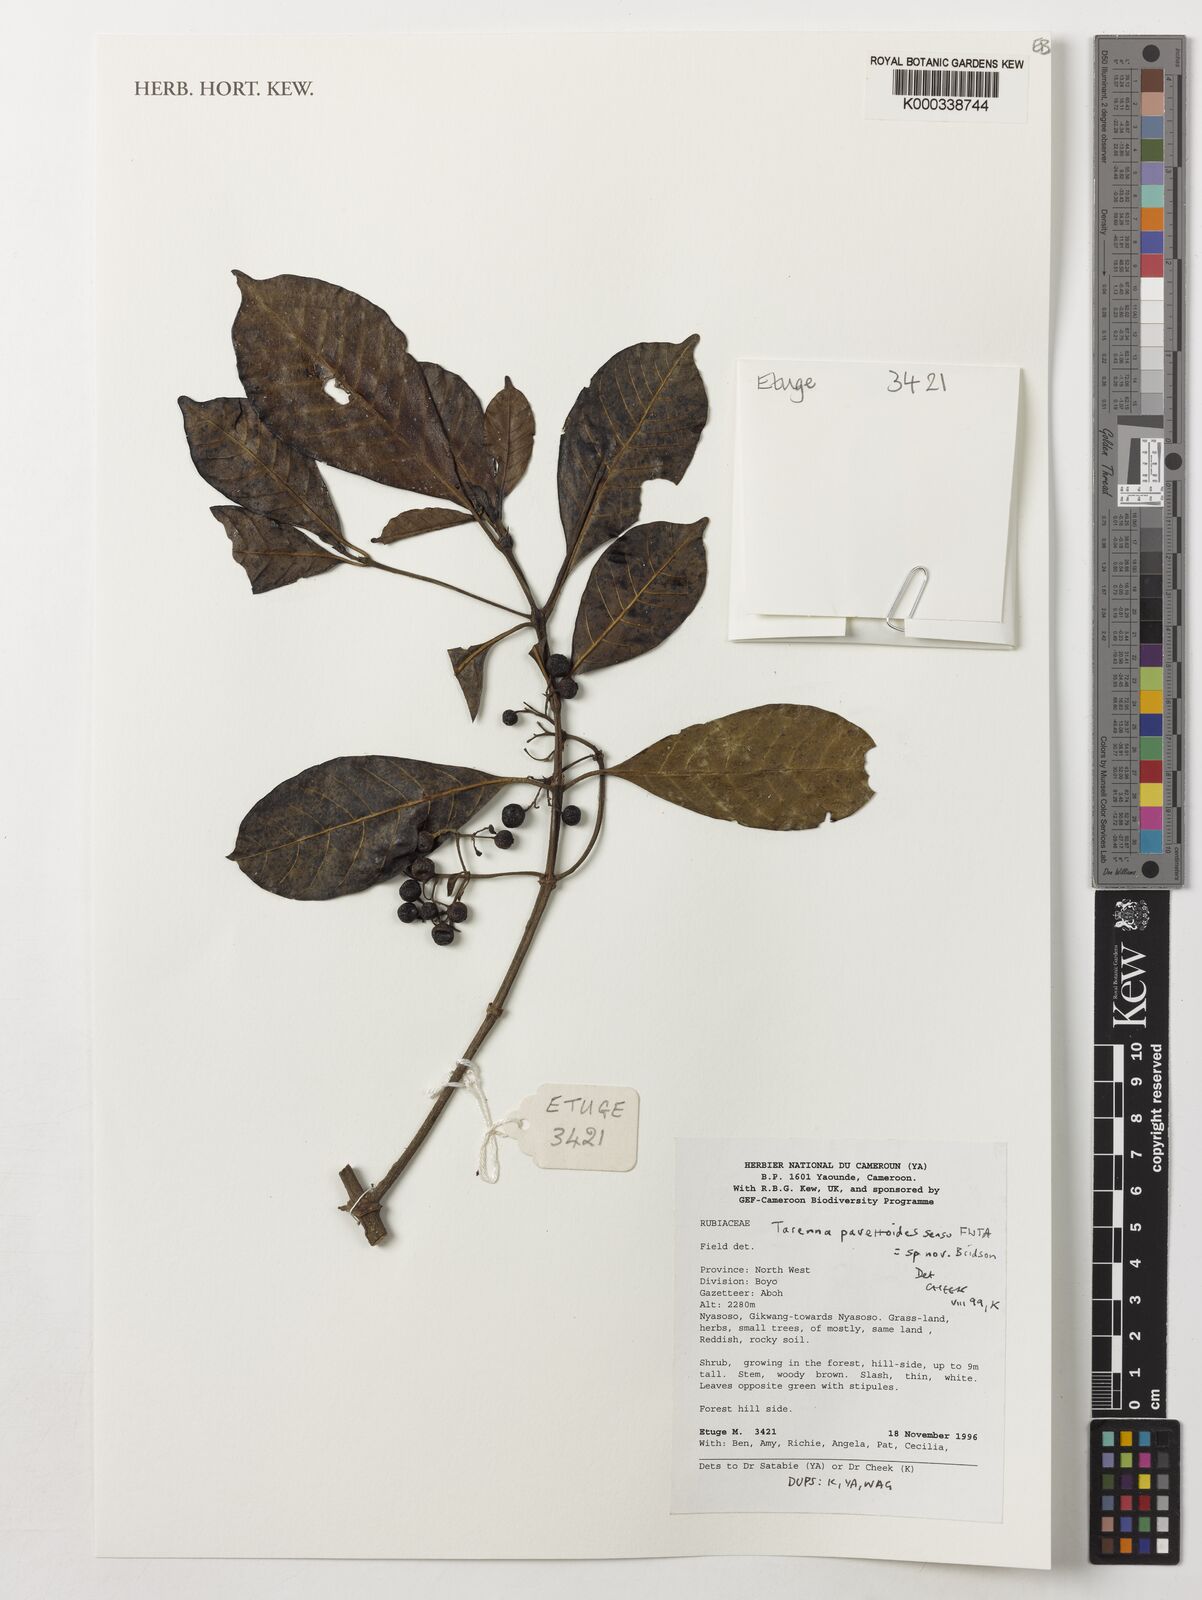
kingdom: Plantae
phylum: Tracheophyta
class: Magnoliopsida
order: Gentianales
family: Rubiaceae
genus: Tarenna
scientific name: Tarenna pavettoides
